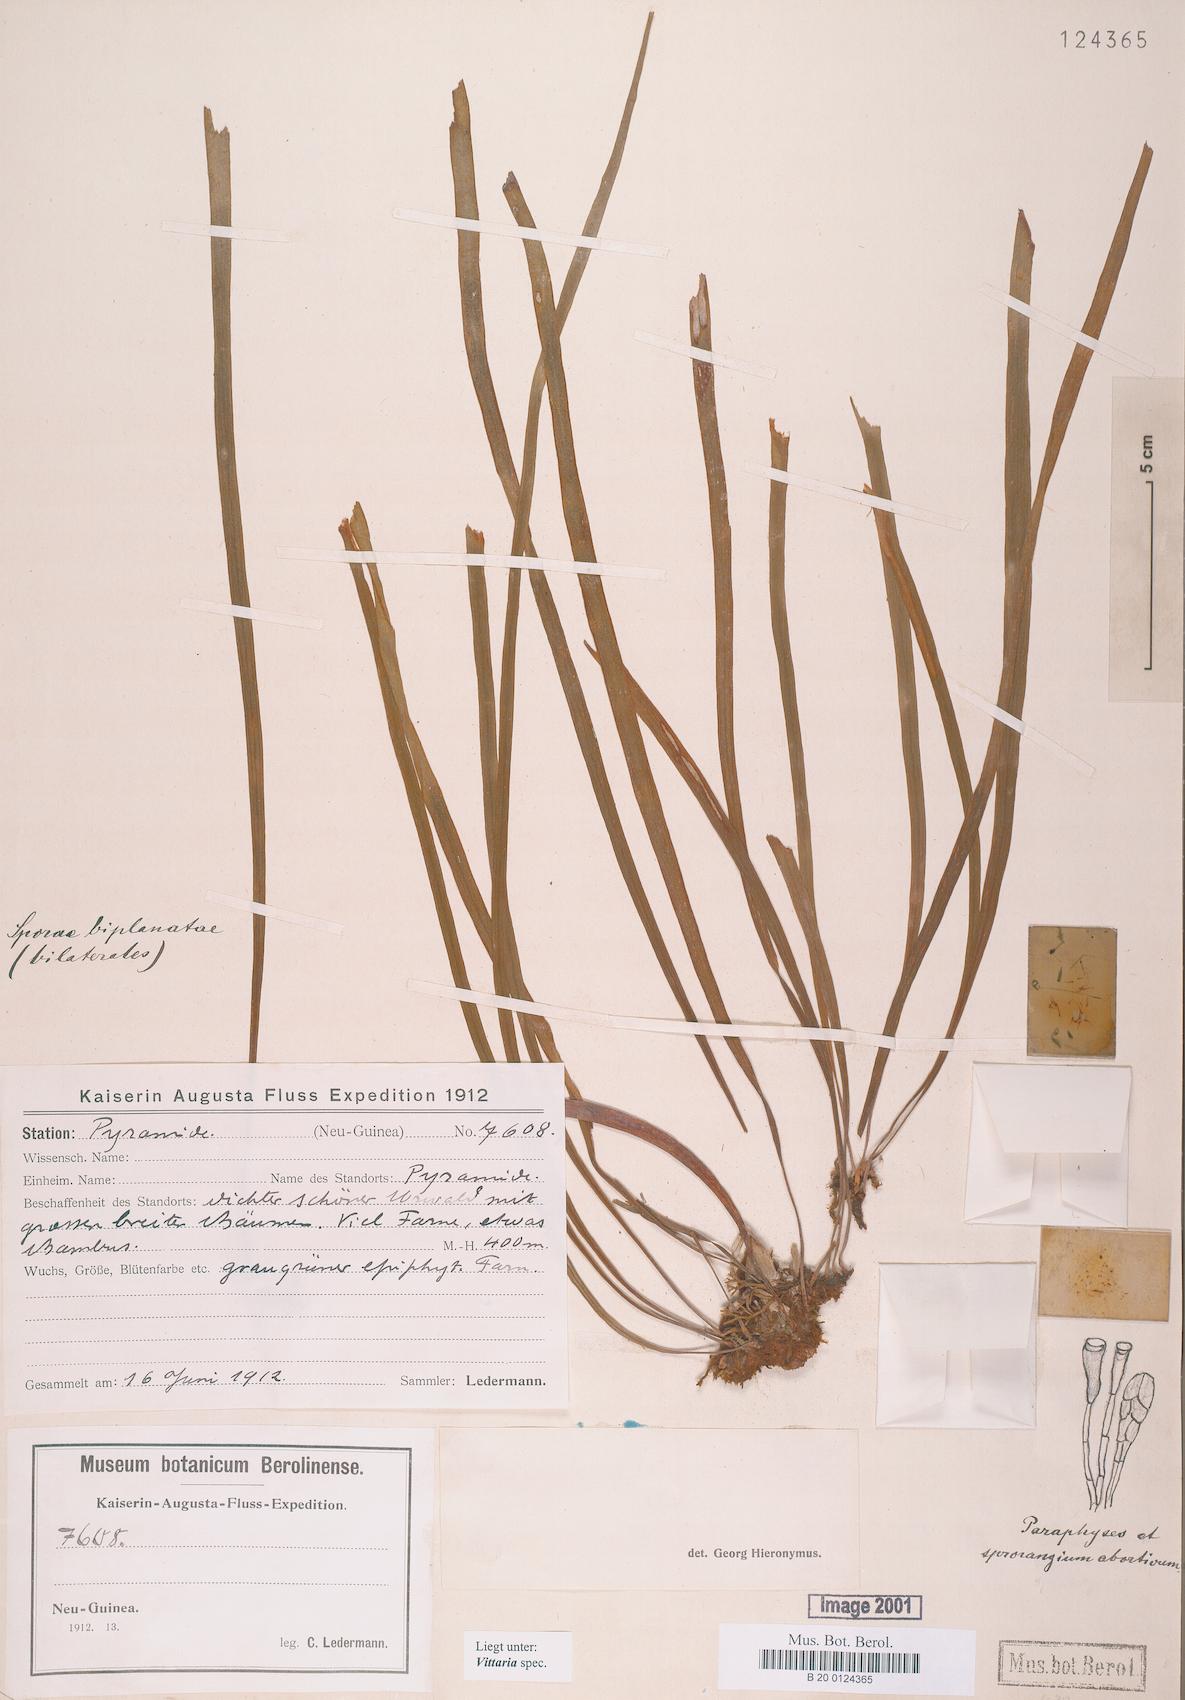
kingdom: Plantae
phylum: Tracheophyta
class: Polypodiopsida
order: Polypodiales
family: Pteridaceae
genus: Vittaria
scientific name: Vittaria
